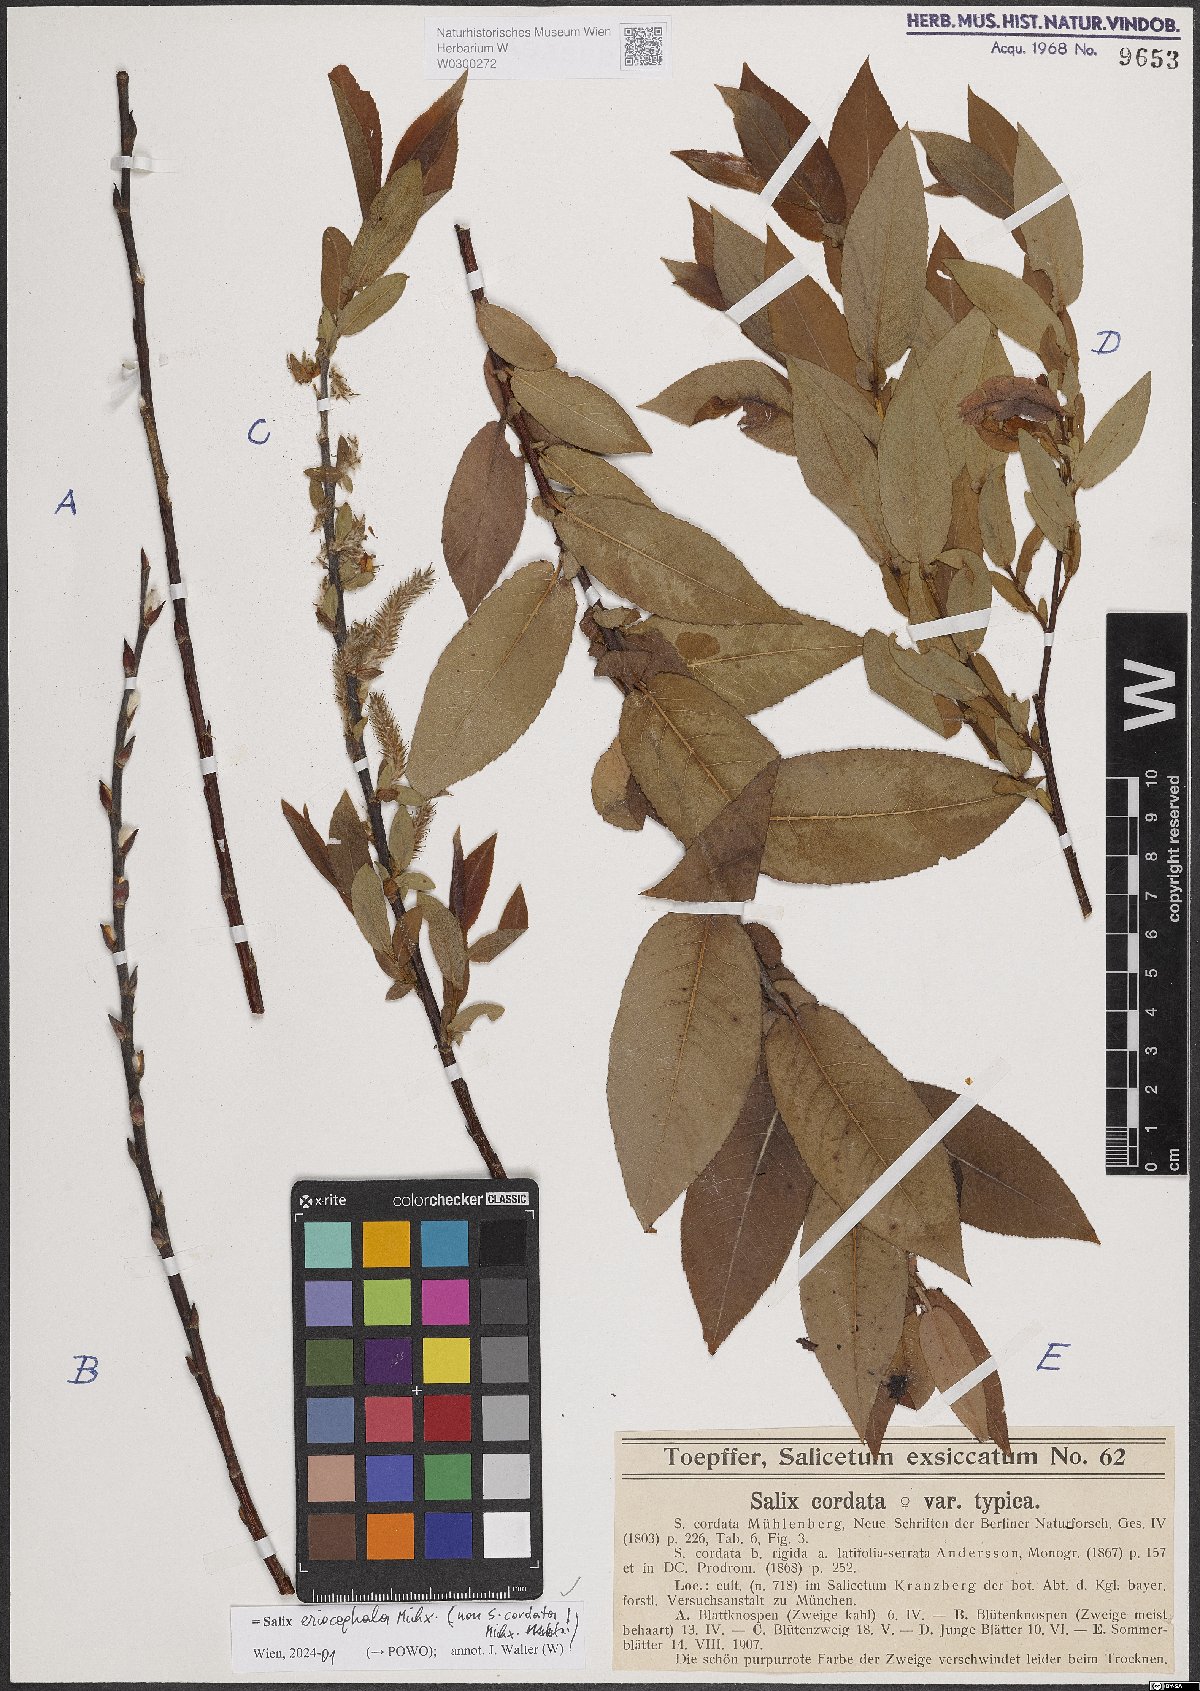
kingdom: Plantae
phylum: Tracheophyta
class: Magnoliopsida
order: Malpighiales
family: Salicaceae
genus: Salix
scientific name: Salix eriocephala
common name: Heart-leaved willow
